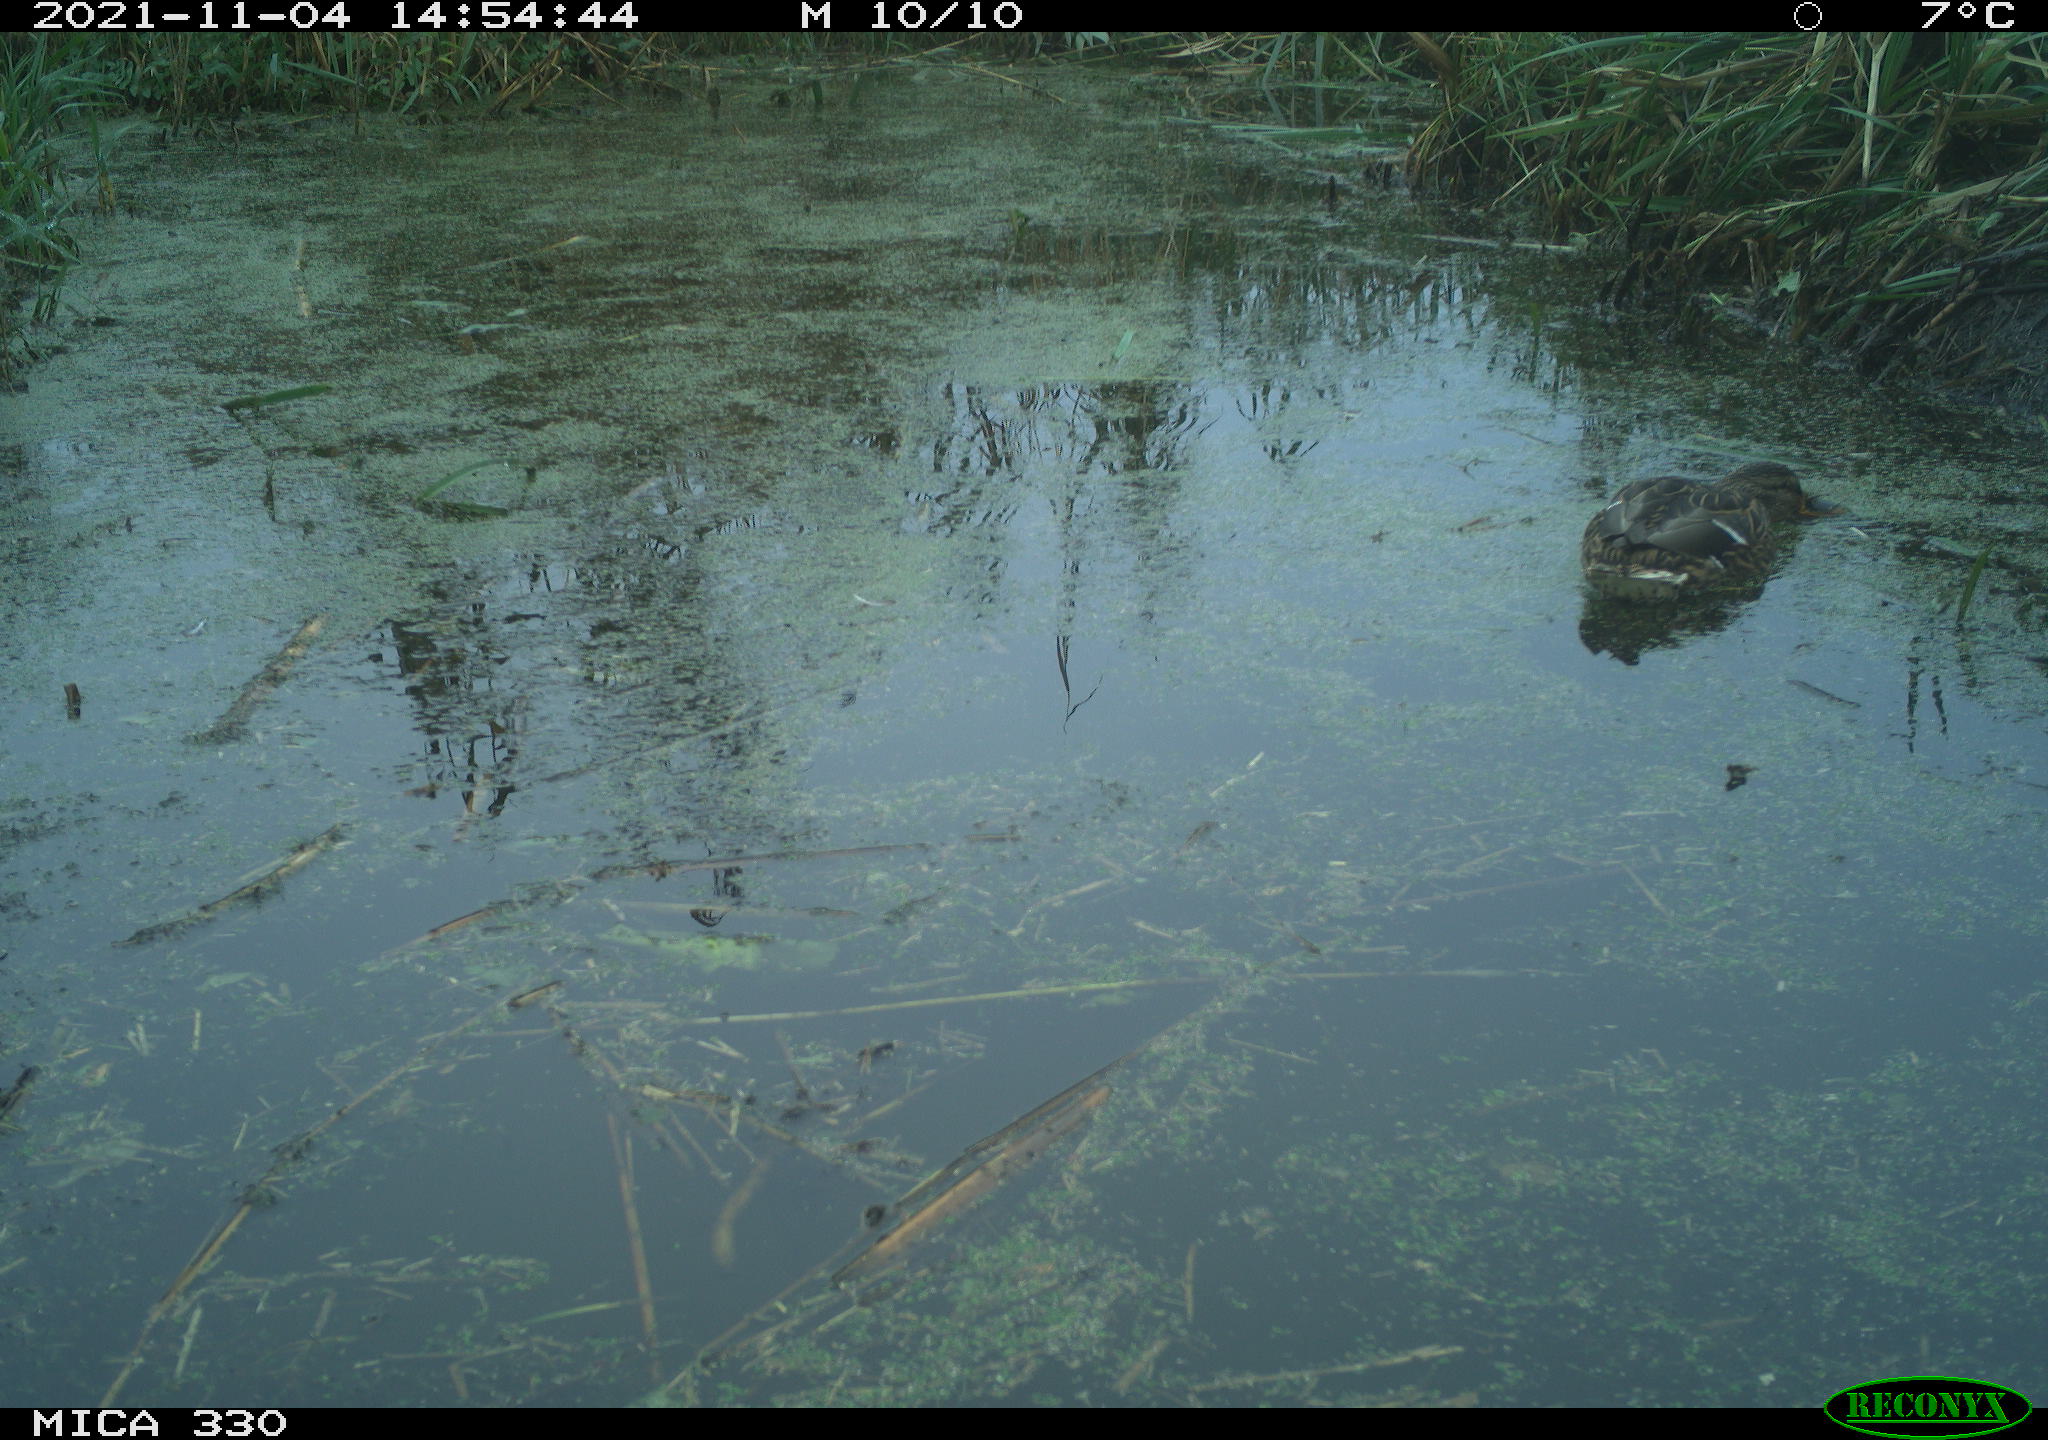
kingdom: Animalia
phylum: Chordata
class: Aves
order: Anseriformes
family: Anatidae
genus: Anas
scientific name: Anas platyrhynchos
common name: Mallard
